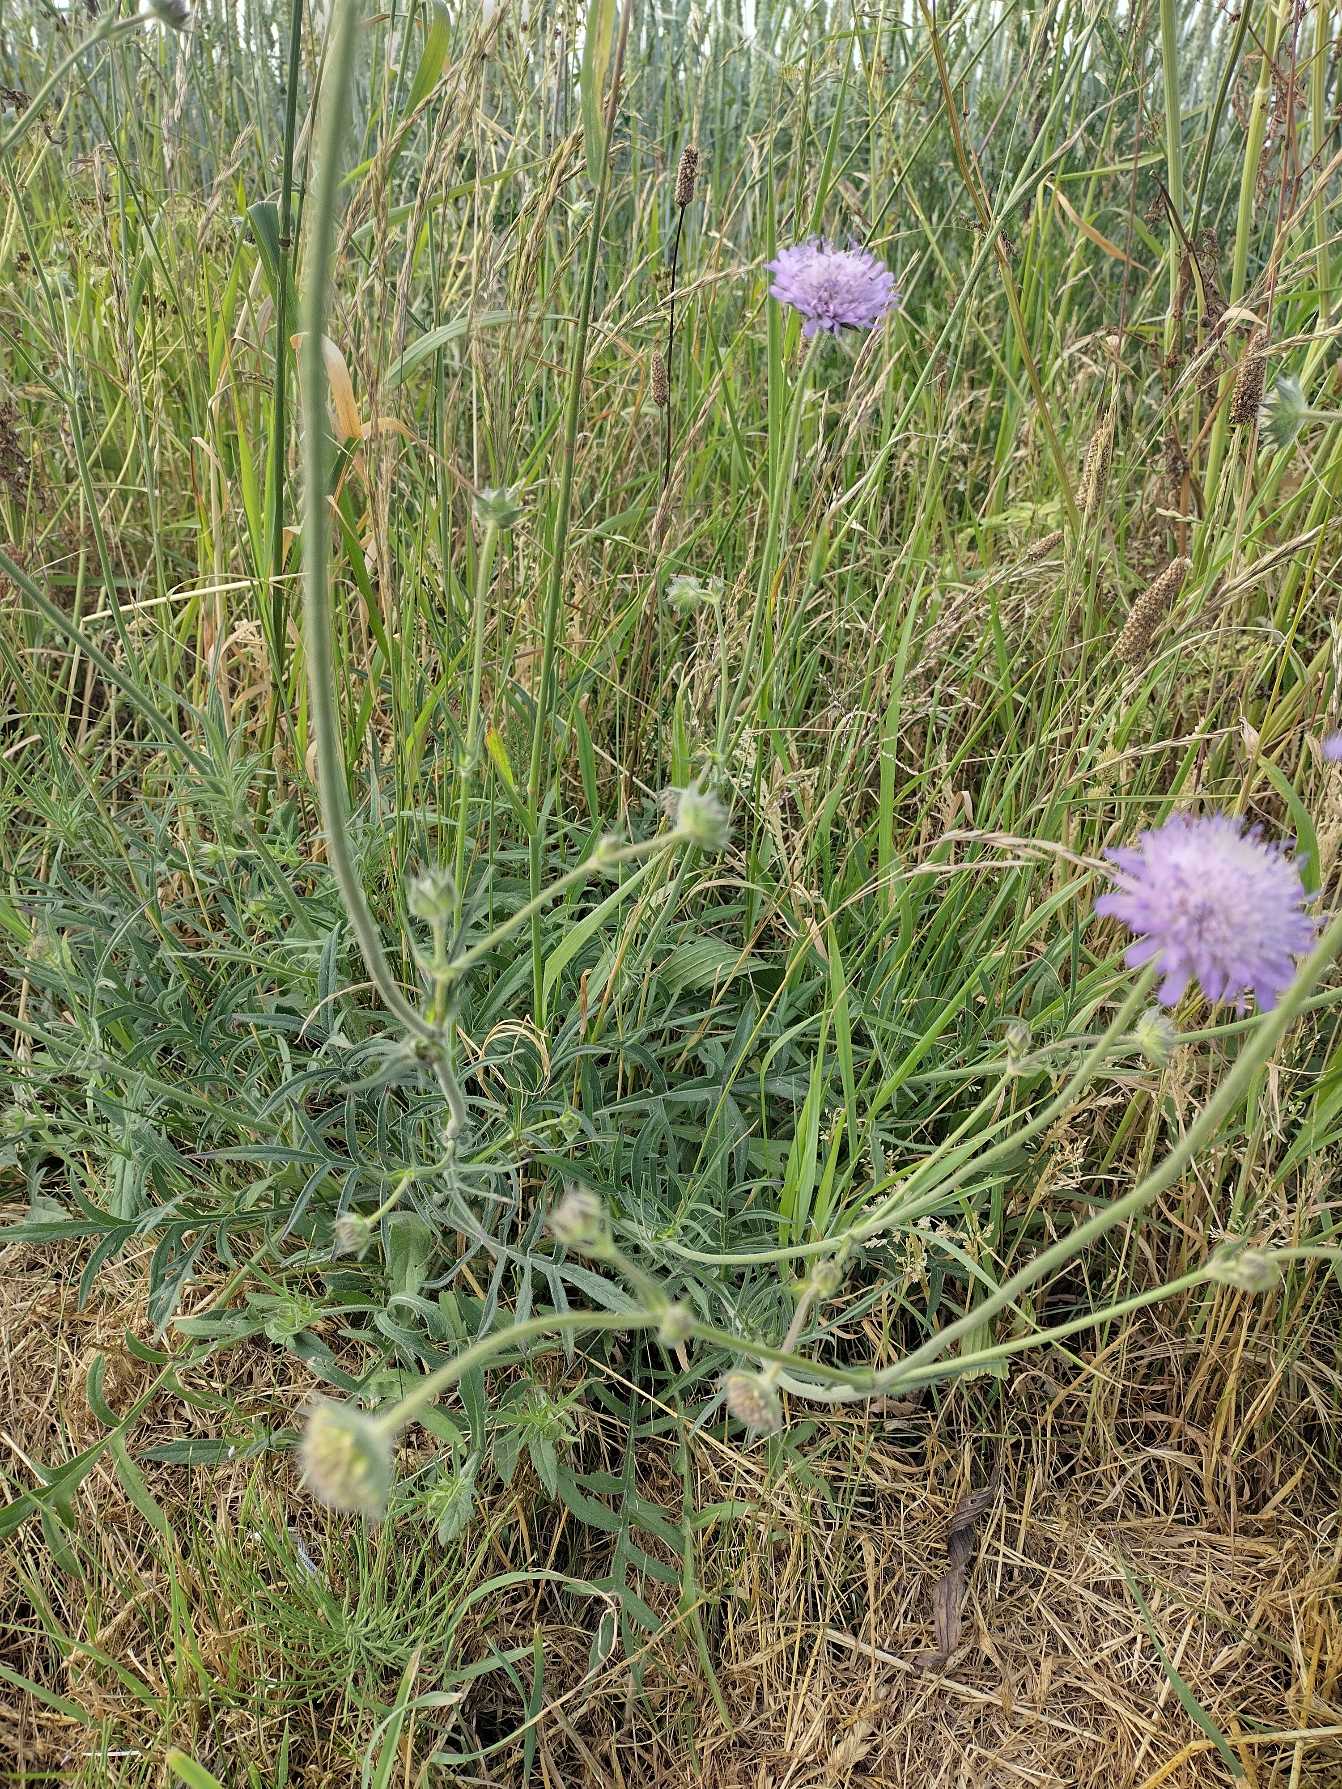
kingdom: Plantae
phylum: Tracheophyta
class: Magnoliopsida
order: Dipsacales
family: Caprifoliaceae
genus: Knautia
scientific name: Knautia arvensis
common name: Blåhat
